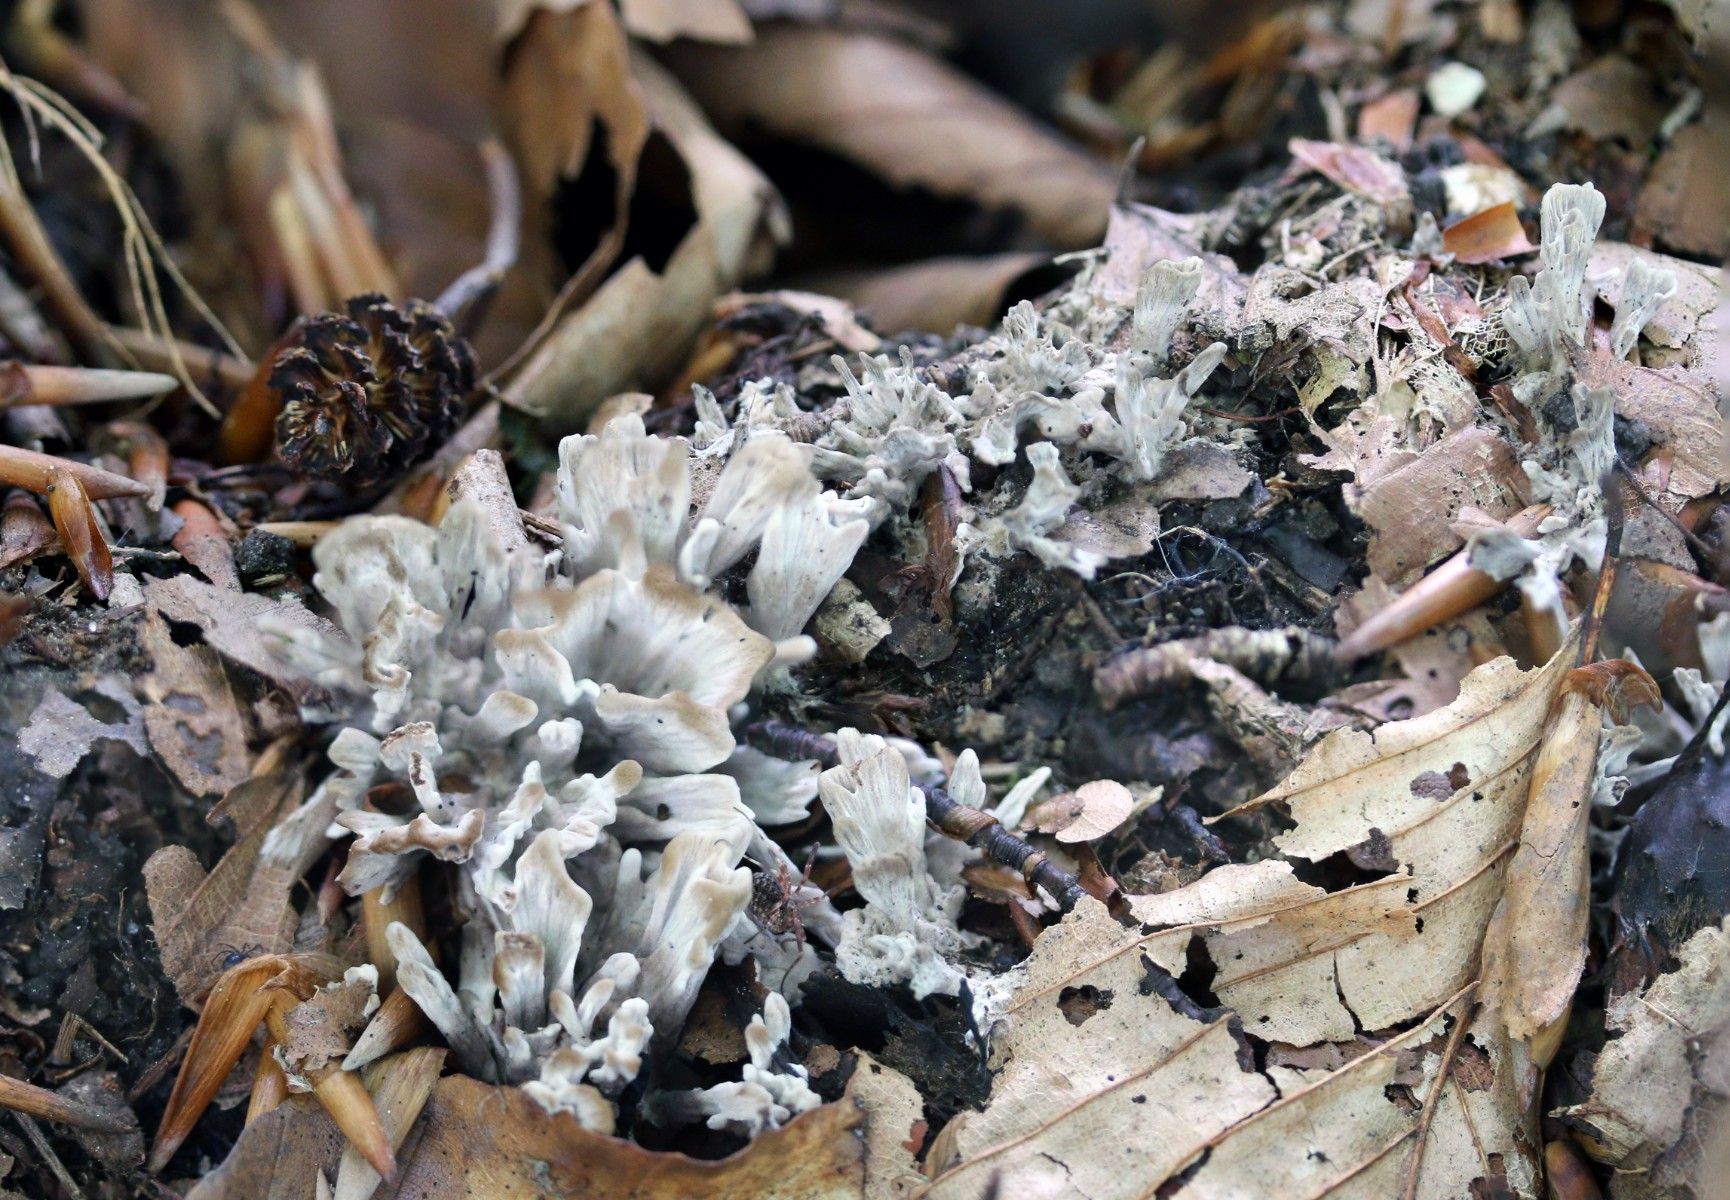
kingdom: Fungi
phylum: Basidiomycota
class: Agaricomycetes
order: Thelephorales
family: Thelephoraceae
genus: Thelephora
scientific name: Thelephora friulana
